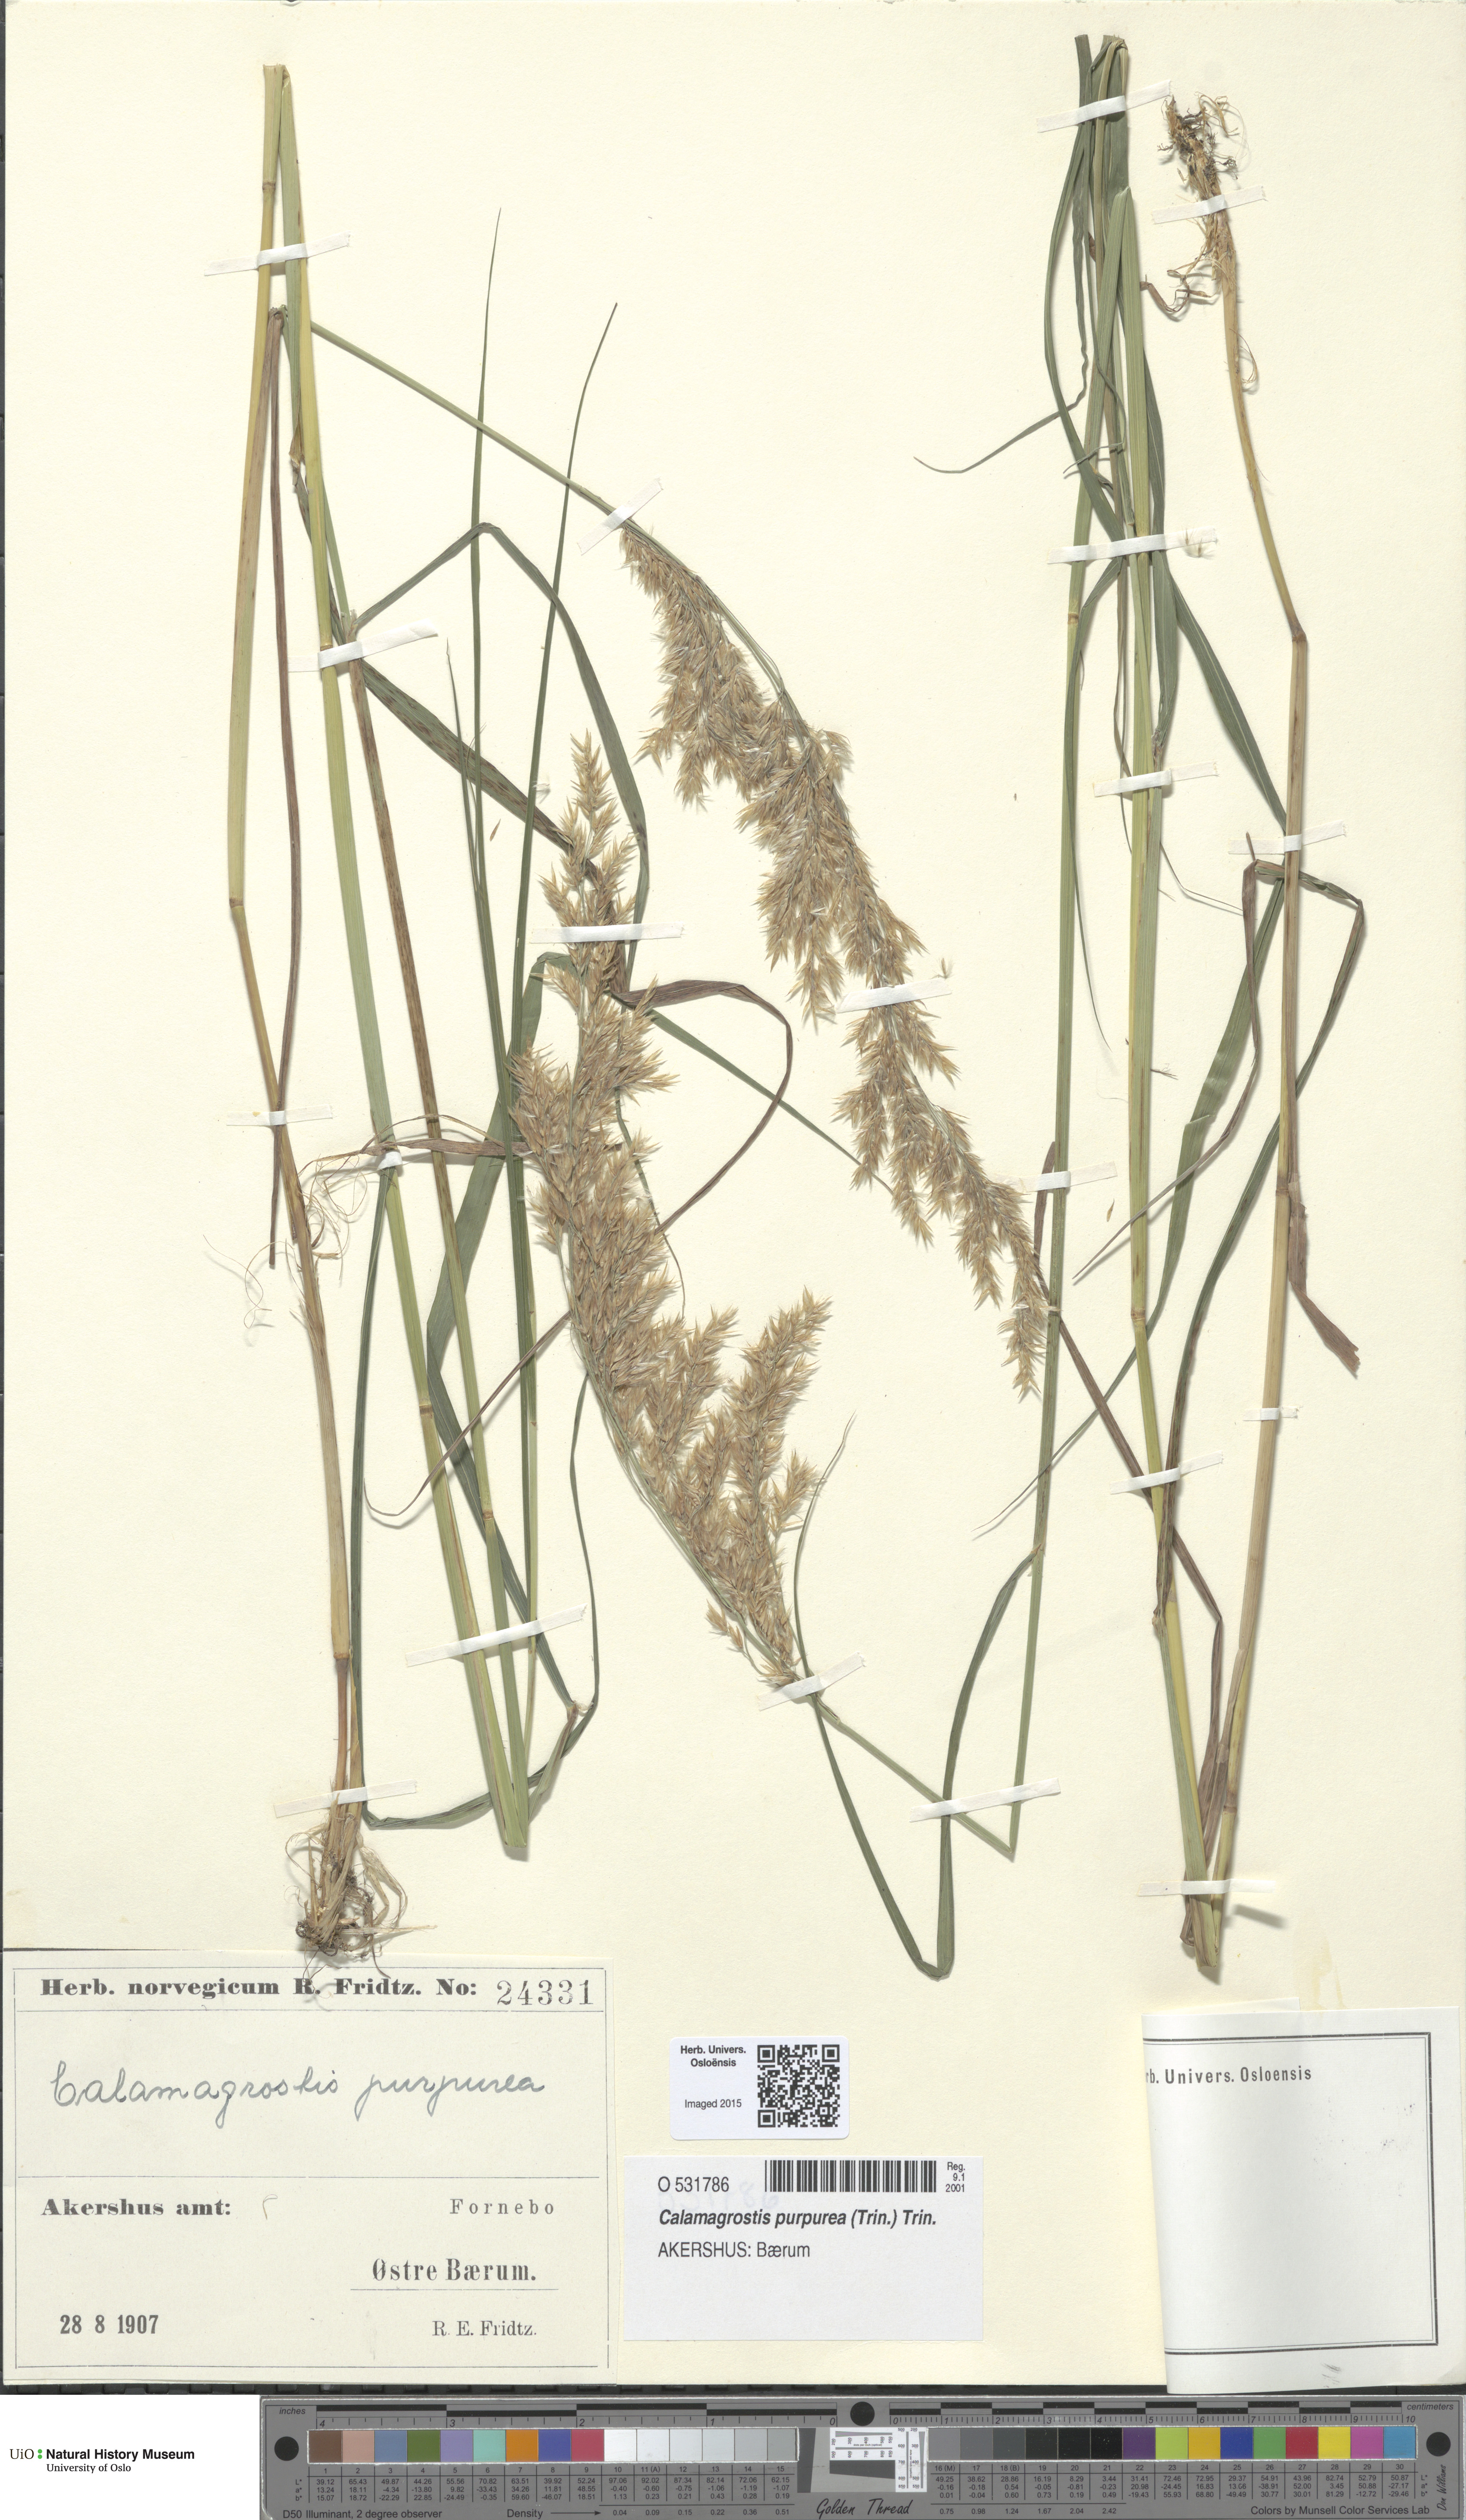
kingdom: Plantae
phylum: Tracheophyta
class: Liliopsida
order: Poales
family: Poaceae
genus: Calamagrostis
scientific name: Calamagrostis purpurea
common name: Scandinavian small-reed
